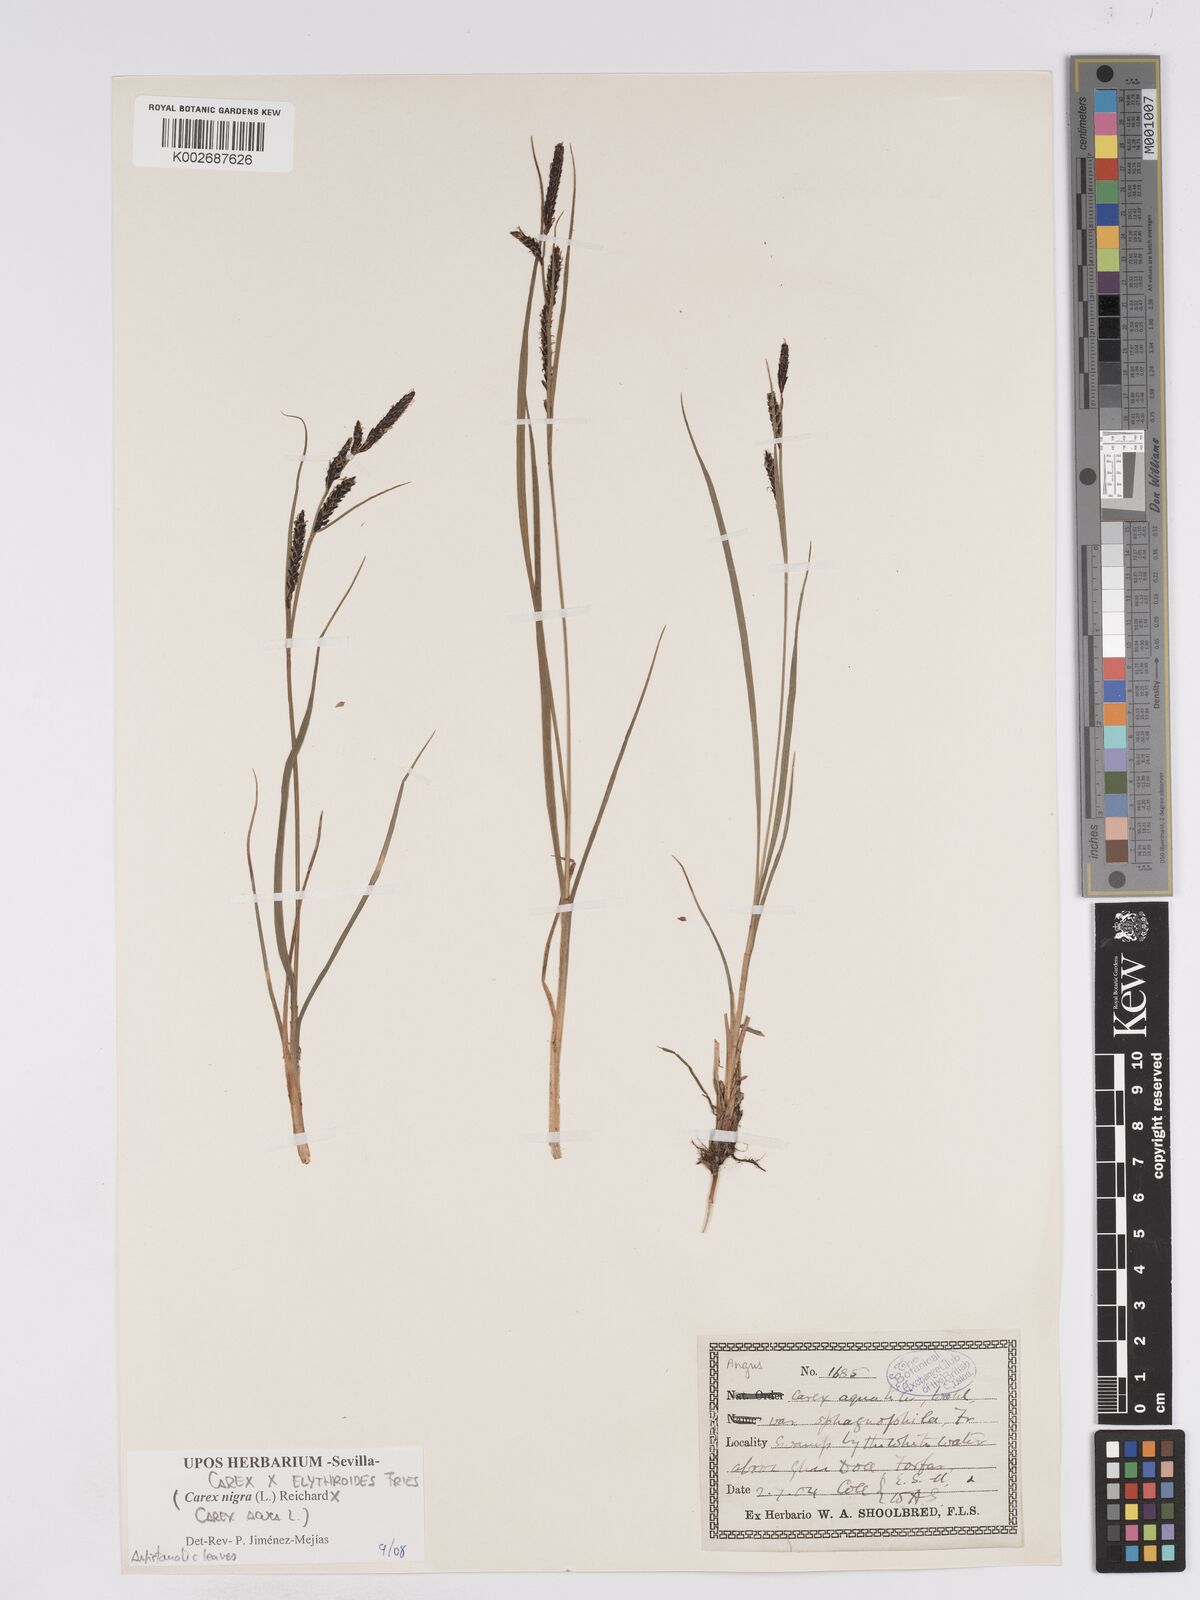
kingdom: Plantae
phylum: Tracheophyta
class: Liliopsida
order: Poales
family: Cyperaceae
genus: Carex
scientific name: Carex nigra
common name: Common sedge
